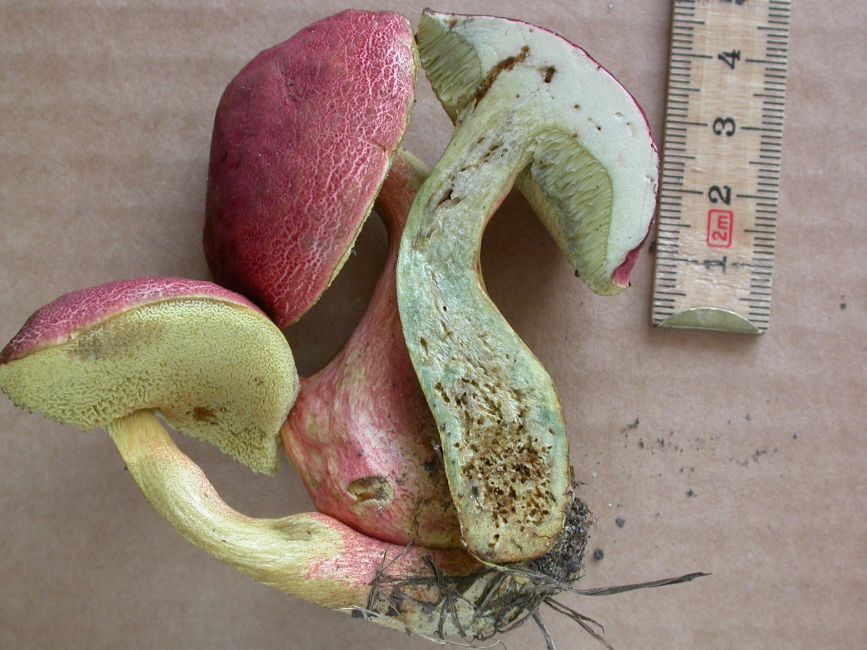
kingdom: Fungi
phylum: Basidiomycota
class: Agaricomycetes
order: Boletales
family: Boletaceae
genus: Hortiboletus
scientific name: Hortiboletus rubellus
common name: blodrød rørhat
